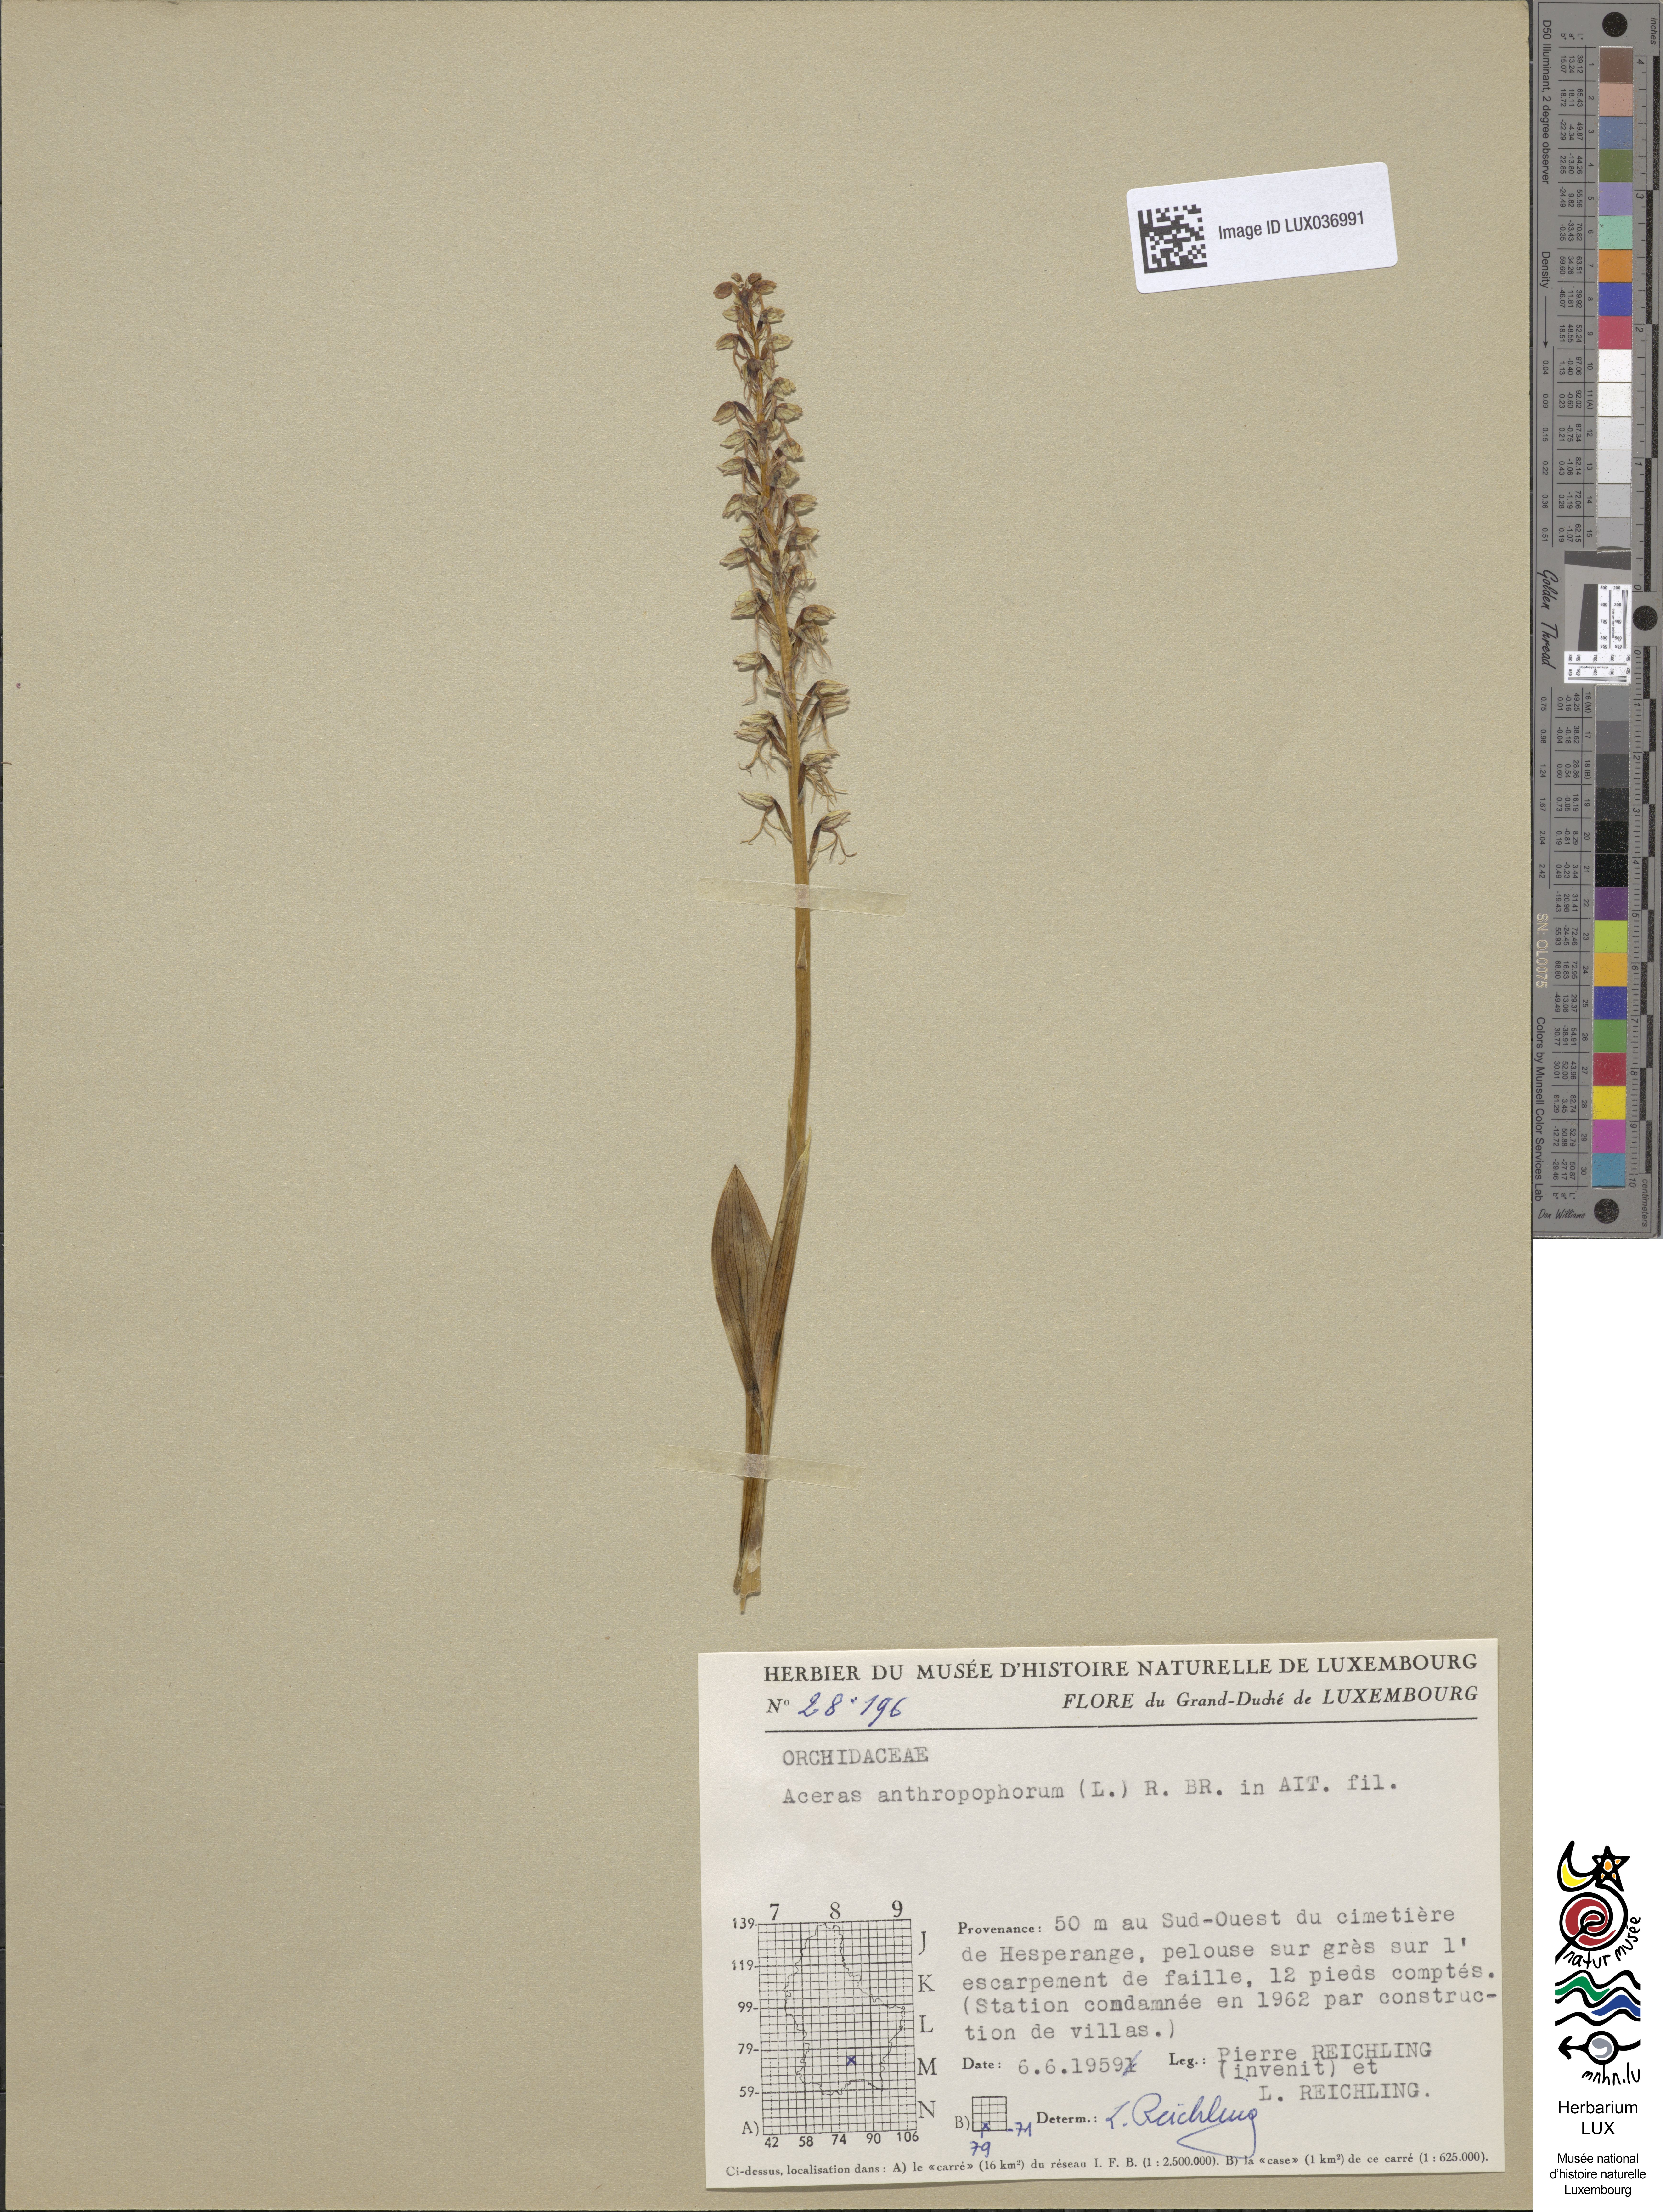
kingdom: Plantae
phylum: Tracheophyta
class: Liliopsida
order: Asparagales
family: Orchidaceae
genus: Orchis
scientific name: Orchis anthropophora
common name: Man orchid
